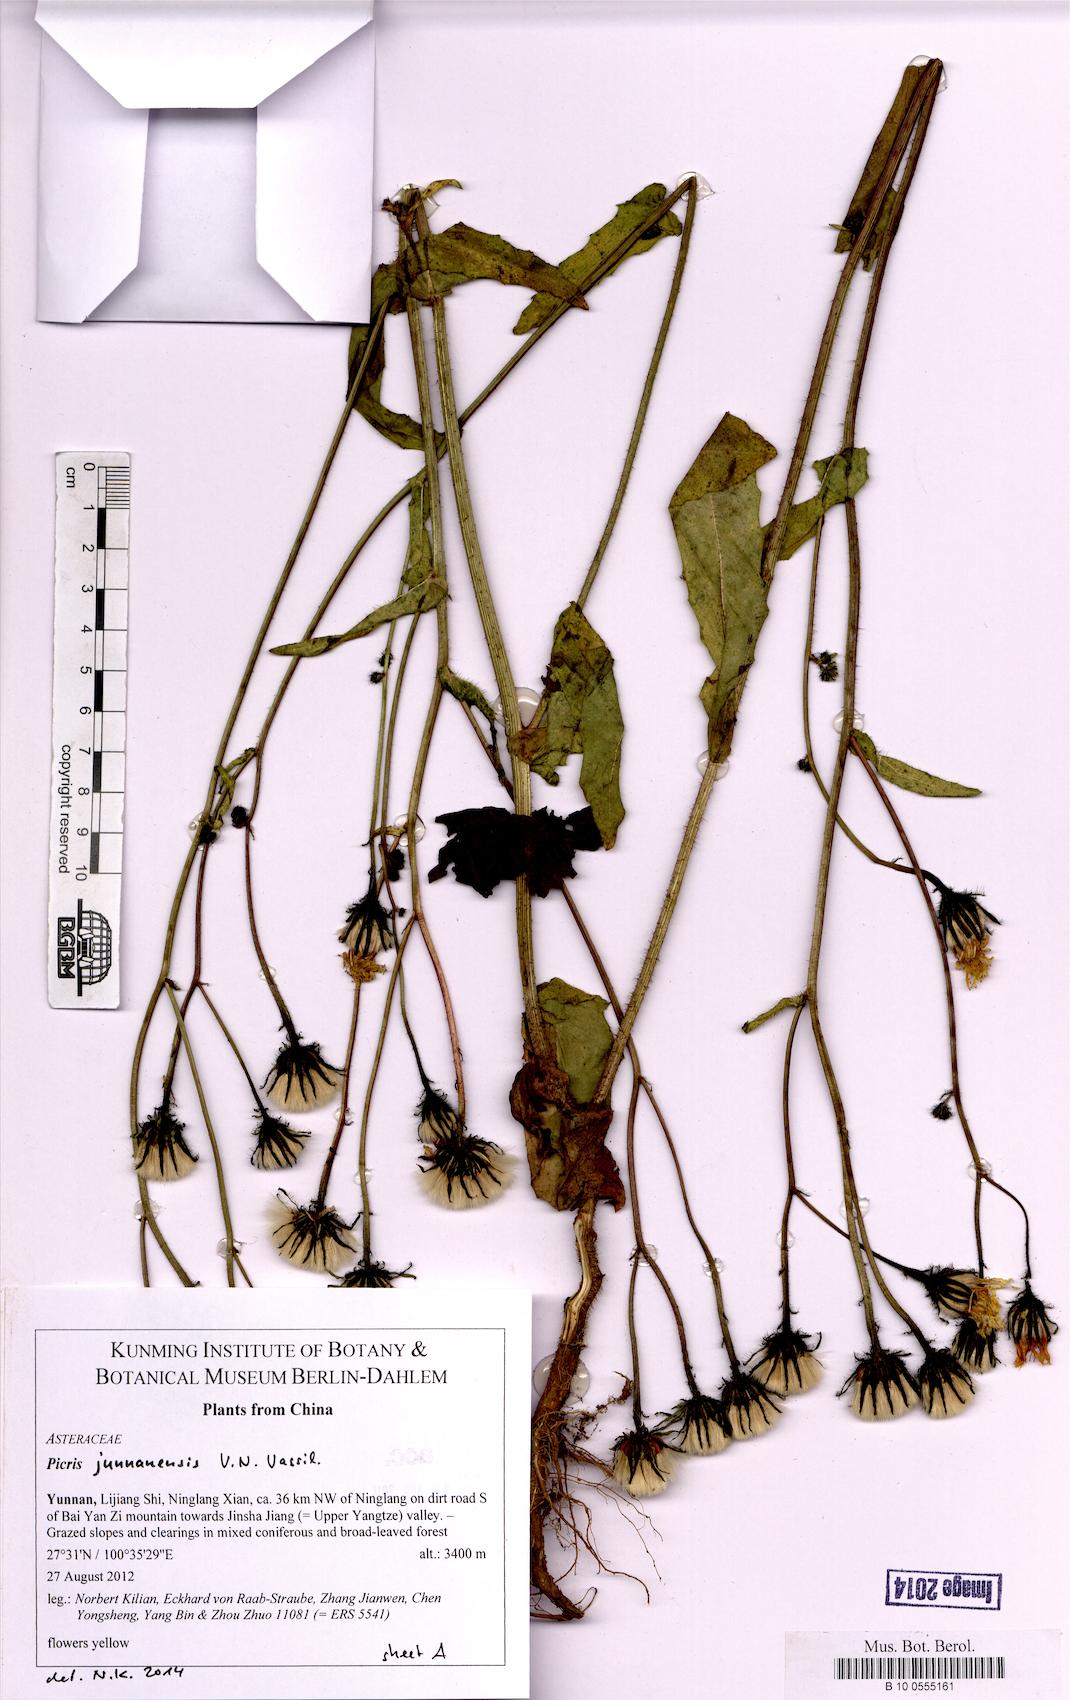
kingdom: Plantae
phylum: Tracheophyta
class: Magnoliopsida
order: Asterales
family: Asteraceae
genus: Picris
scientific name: Picris junnanensis
